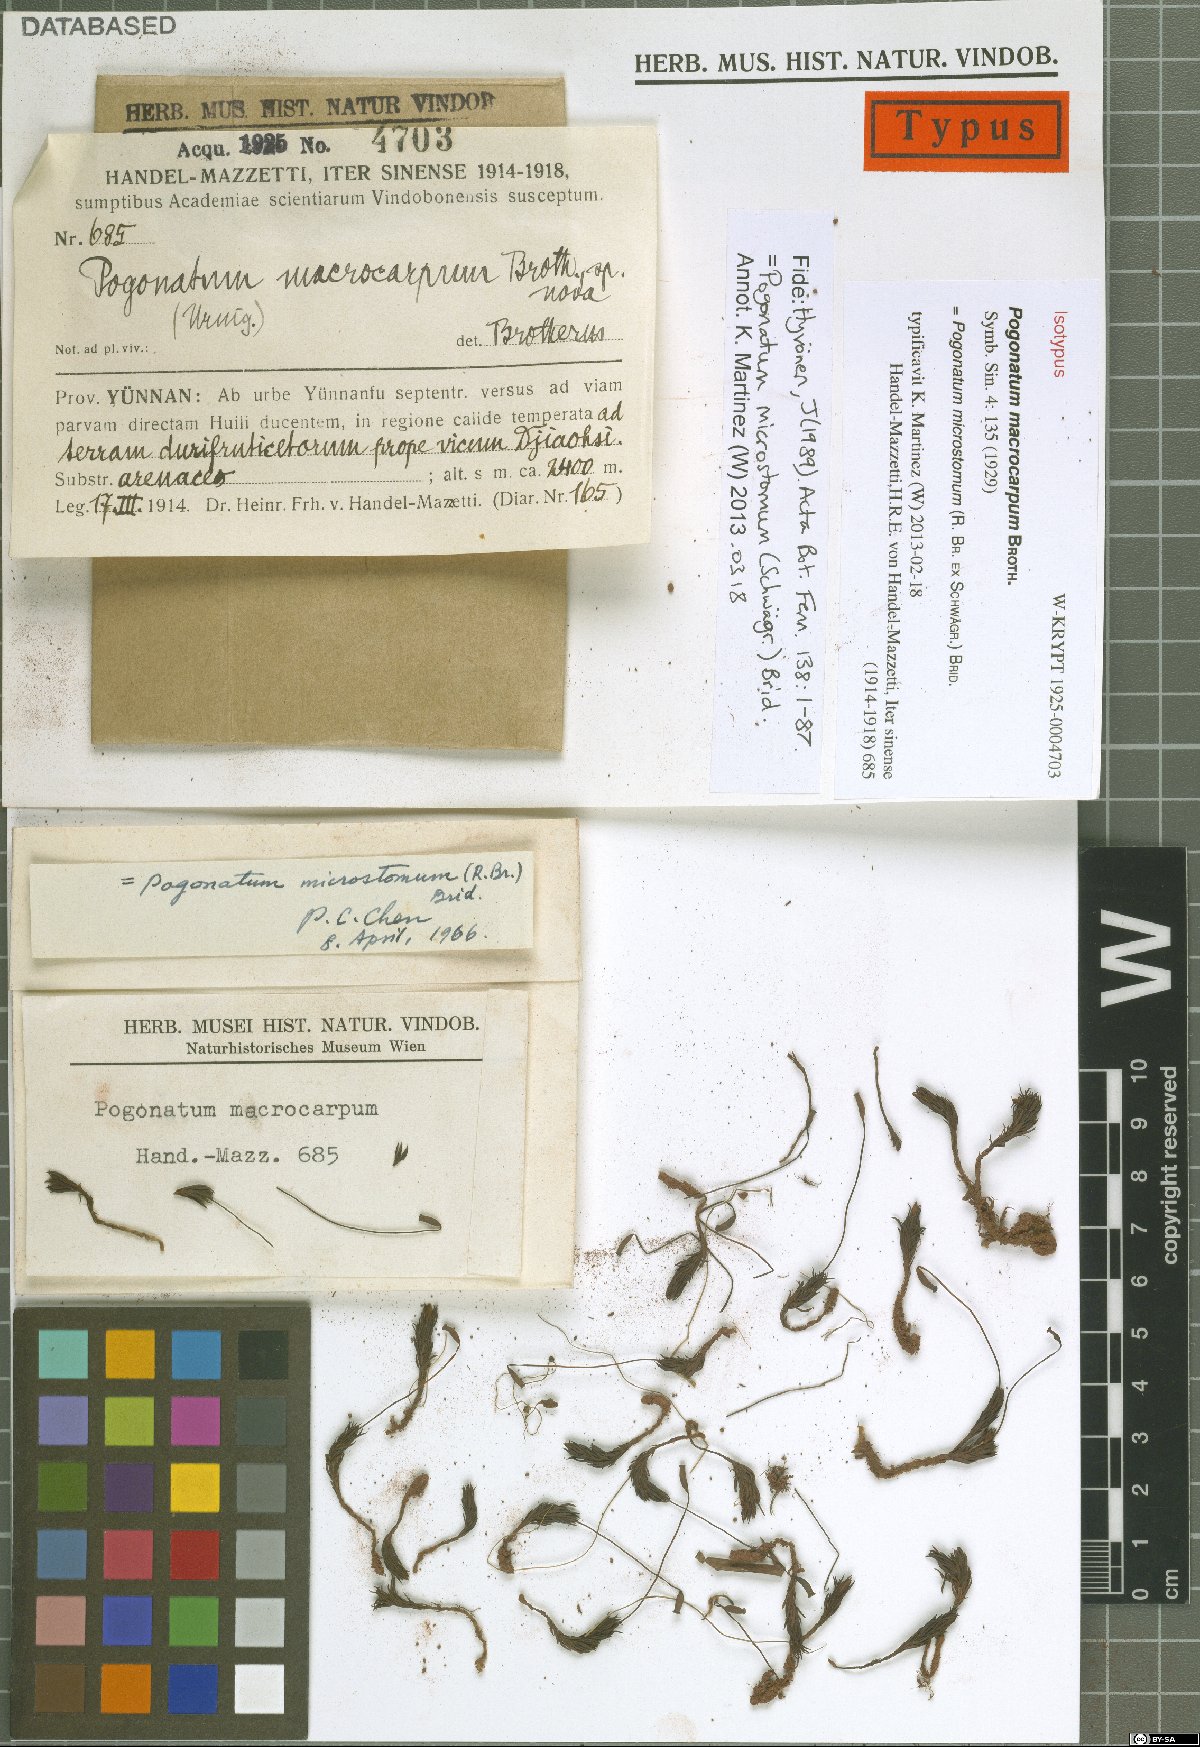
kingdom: Plantae
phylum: Bryophyta
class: Polytrichopsida
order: Polytrichales
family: Polytrichaceae
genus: Pogonatum
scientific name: Pogonatum microstomum
